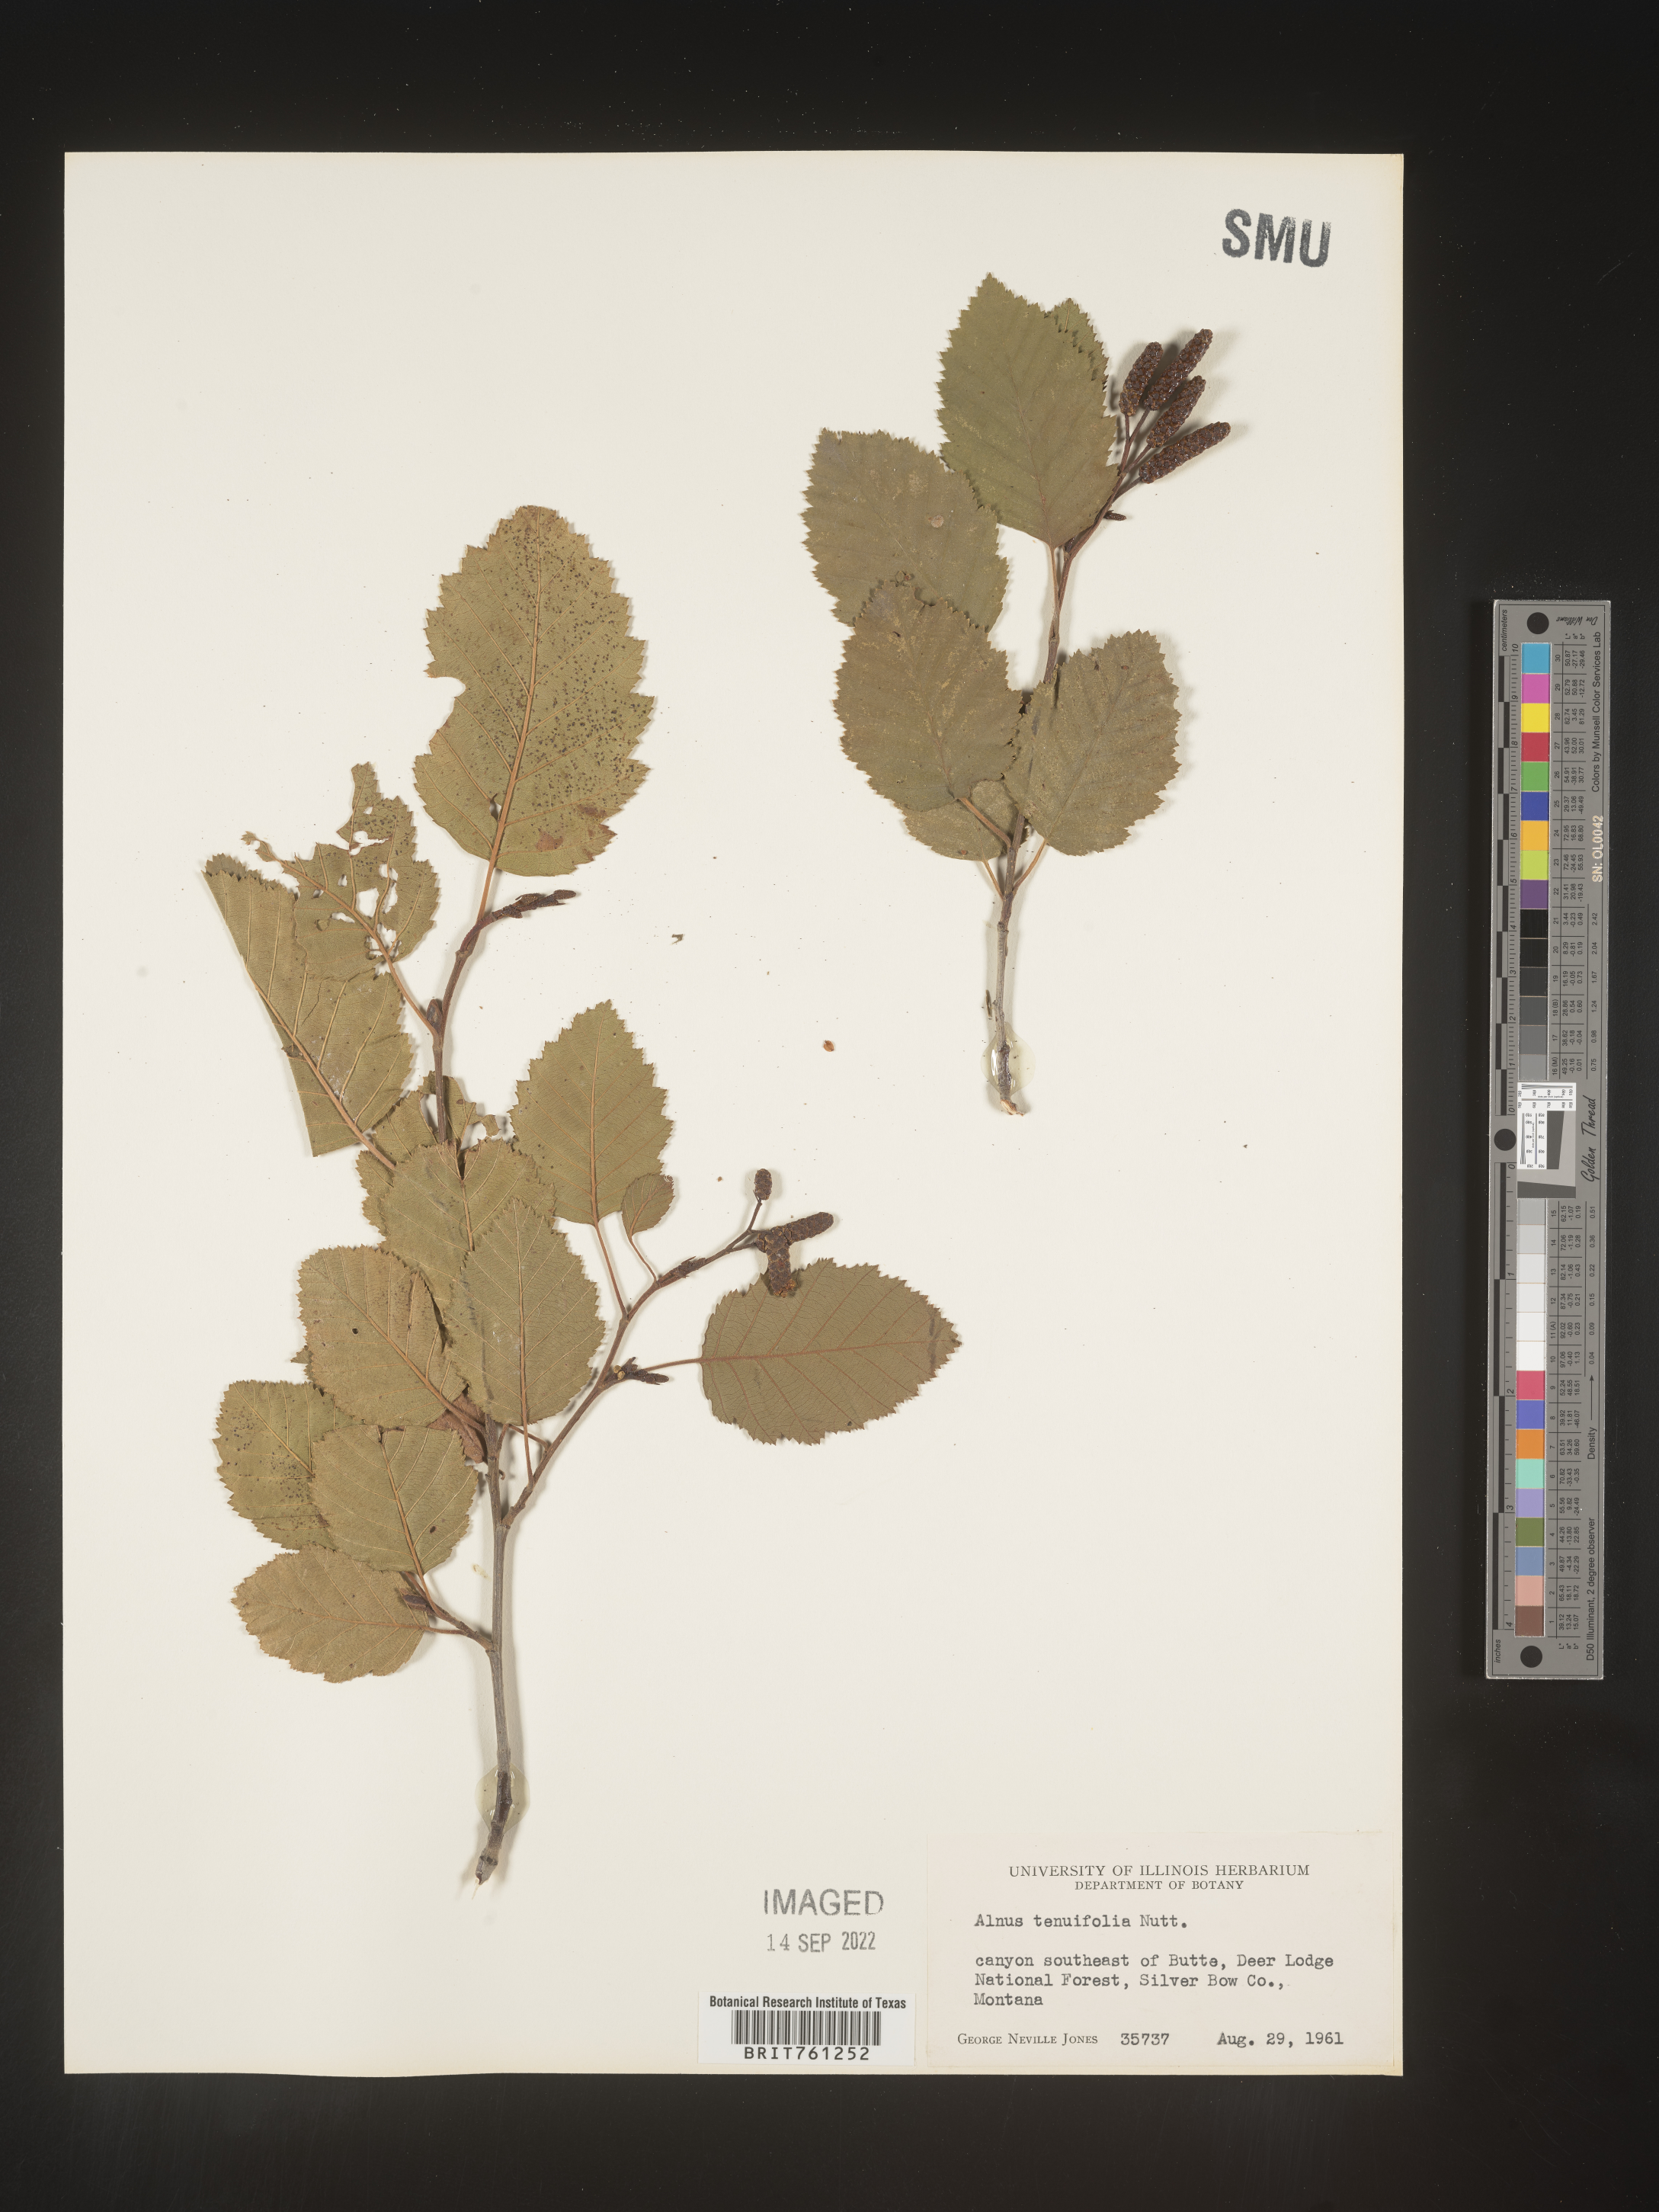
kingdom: Plantae
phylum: Tracheophyta
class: Magnoliopsida
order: Fagales
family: Betulaceae
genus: Alnus
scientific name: Alnus incana
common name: Grey alder
